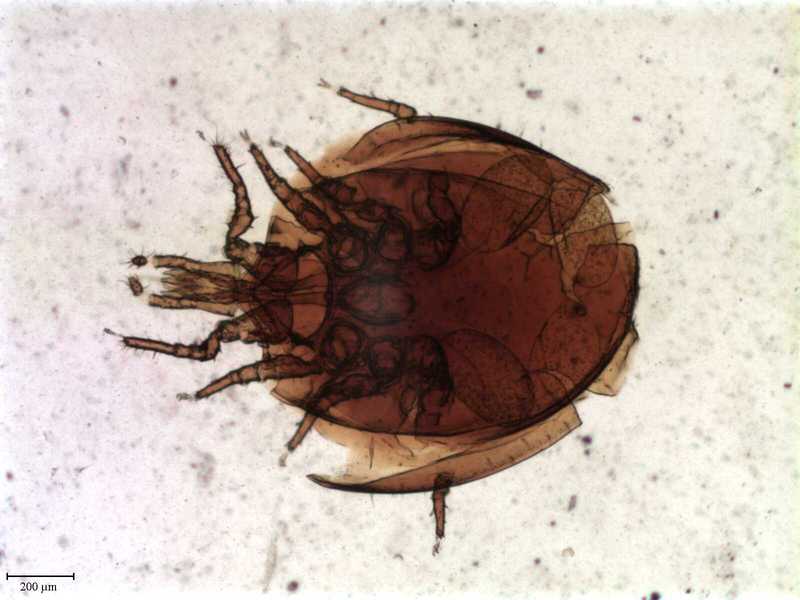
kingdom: Animalia
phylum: Arthropoda
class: Arachnida
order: Mesostigmata
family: Uropodidae
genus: Uroobovella
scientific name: Uroobovella furcigera
